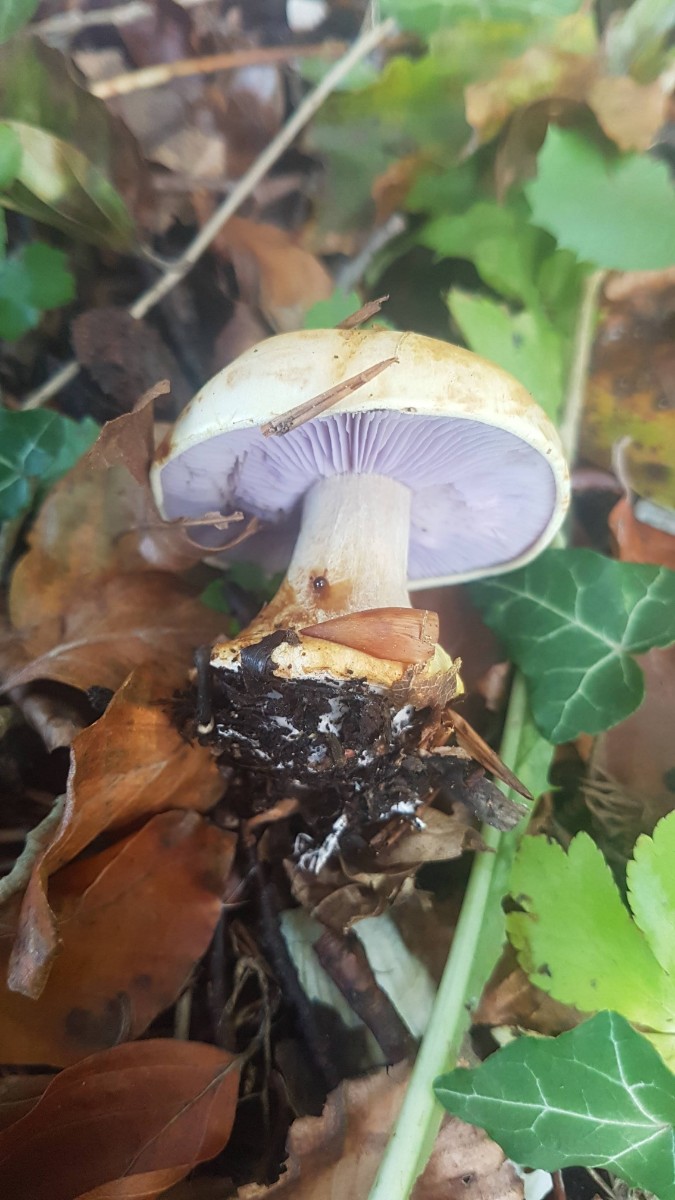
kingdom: Fungi
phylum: Basidiomycota
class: Agaricomycetes
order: Agaricales
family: Cortinariaceae
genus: Calonarius
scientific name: Calonarius catharinae
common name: Katrines slørhat
